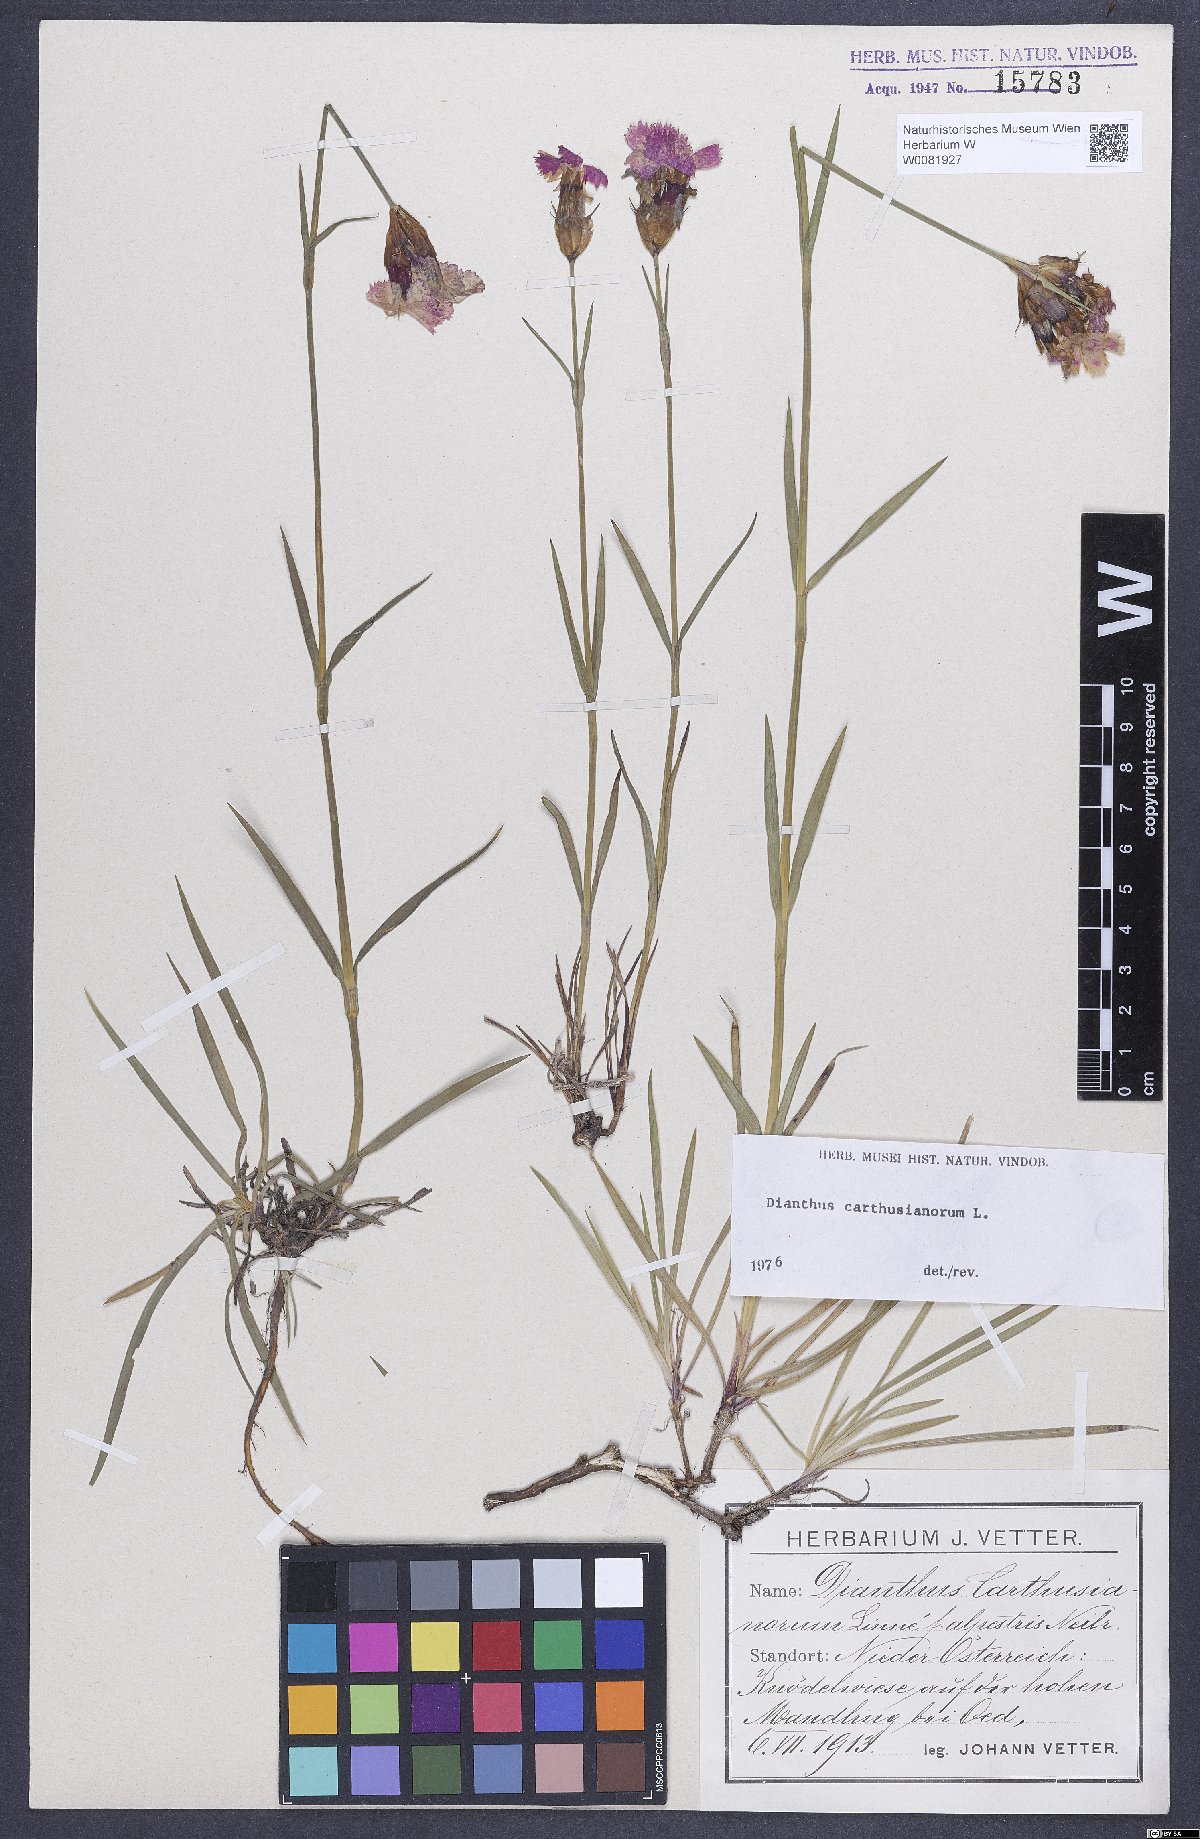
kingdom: Plantae
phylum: Tracheophyta
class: Magnoliopsida
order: Caryophyllales
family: Caryophyllaceae
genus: Dianthus
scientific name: Dianthus carthusianorum
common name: Carthusian pink
